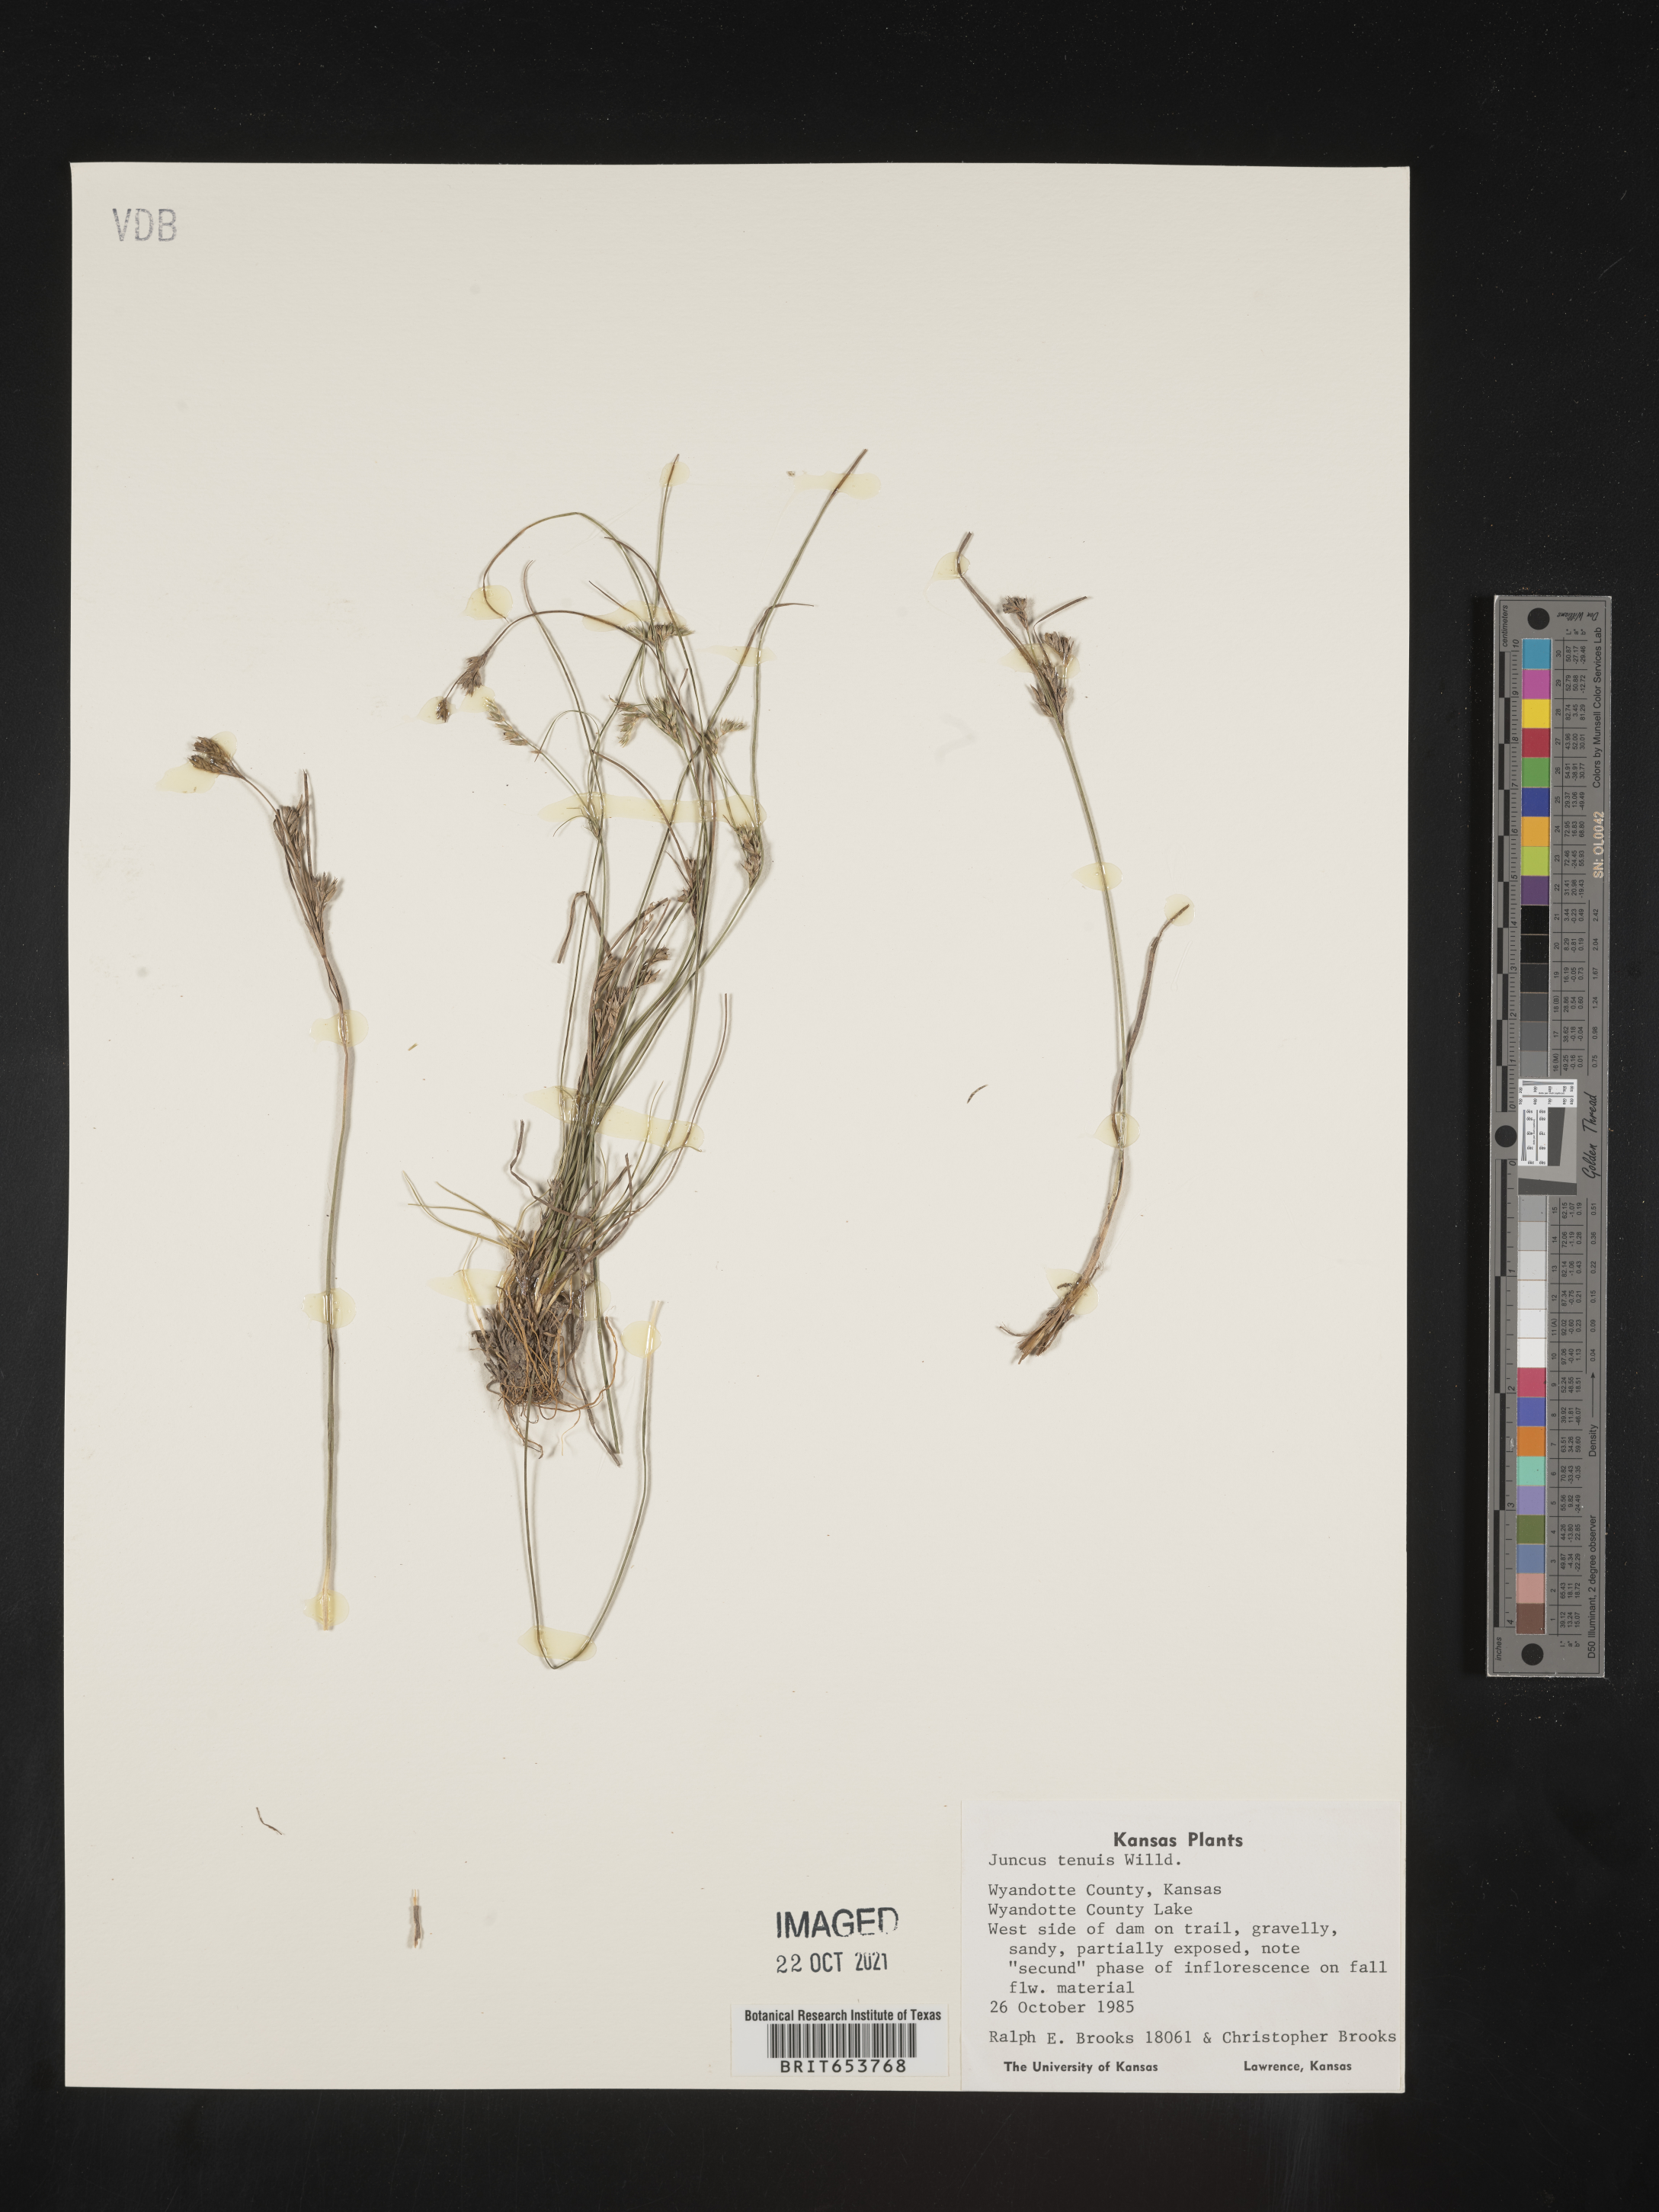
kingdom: Plantae
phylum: Tracheophyta
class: Liliopsida
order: Poales
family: Juncaceae
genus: Juncus
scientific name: Juncus tenuis
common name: Slender rush
